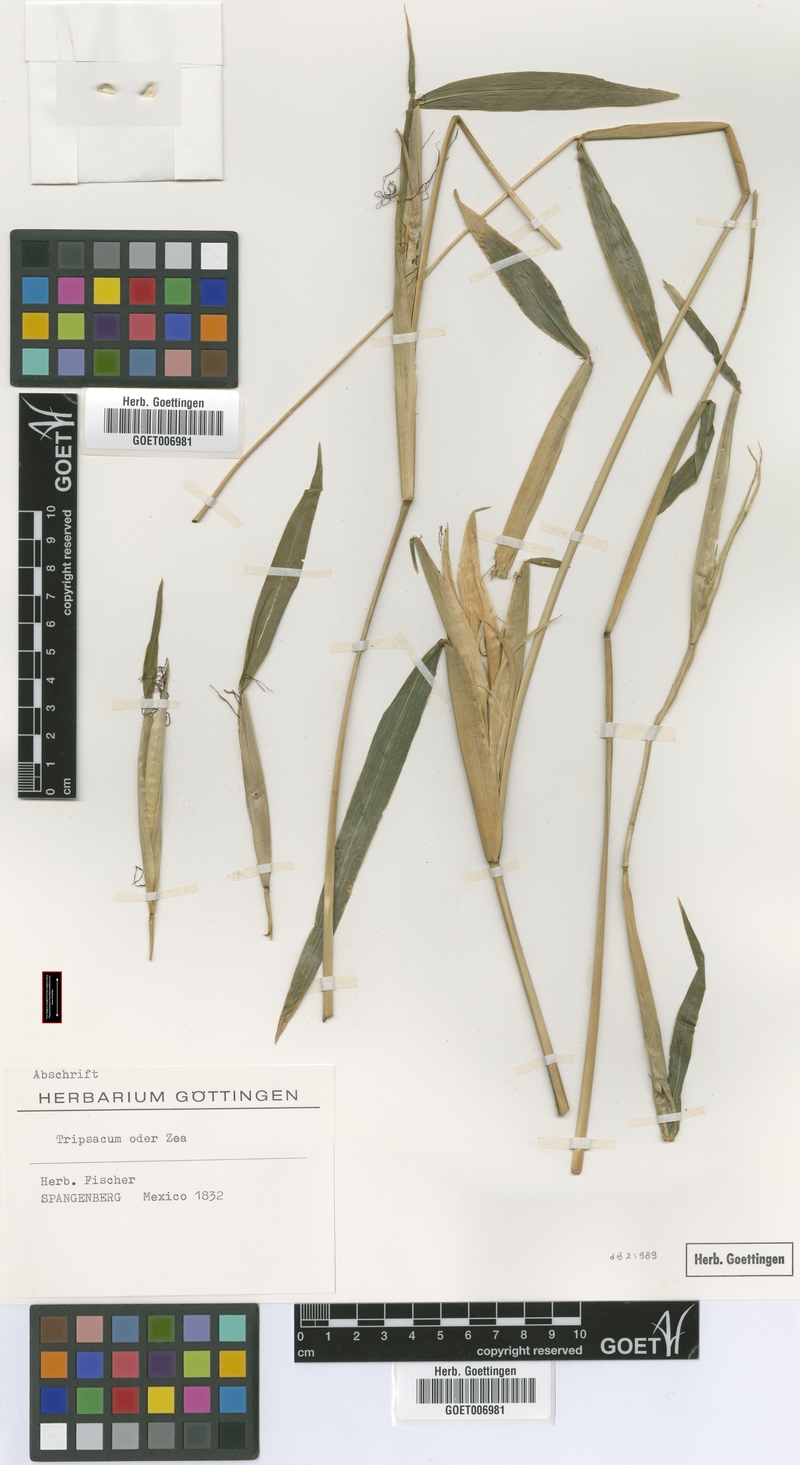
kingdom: Plantae
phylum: Tracheophyta
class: Liliopsida
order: Poales
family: Poaceae
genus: Zea
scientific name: Zea mexicana
